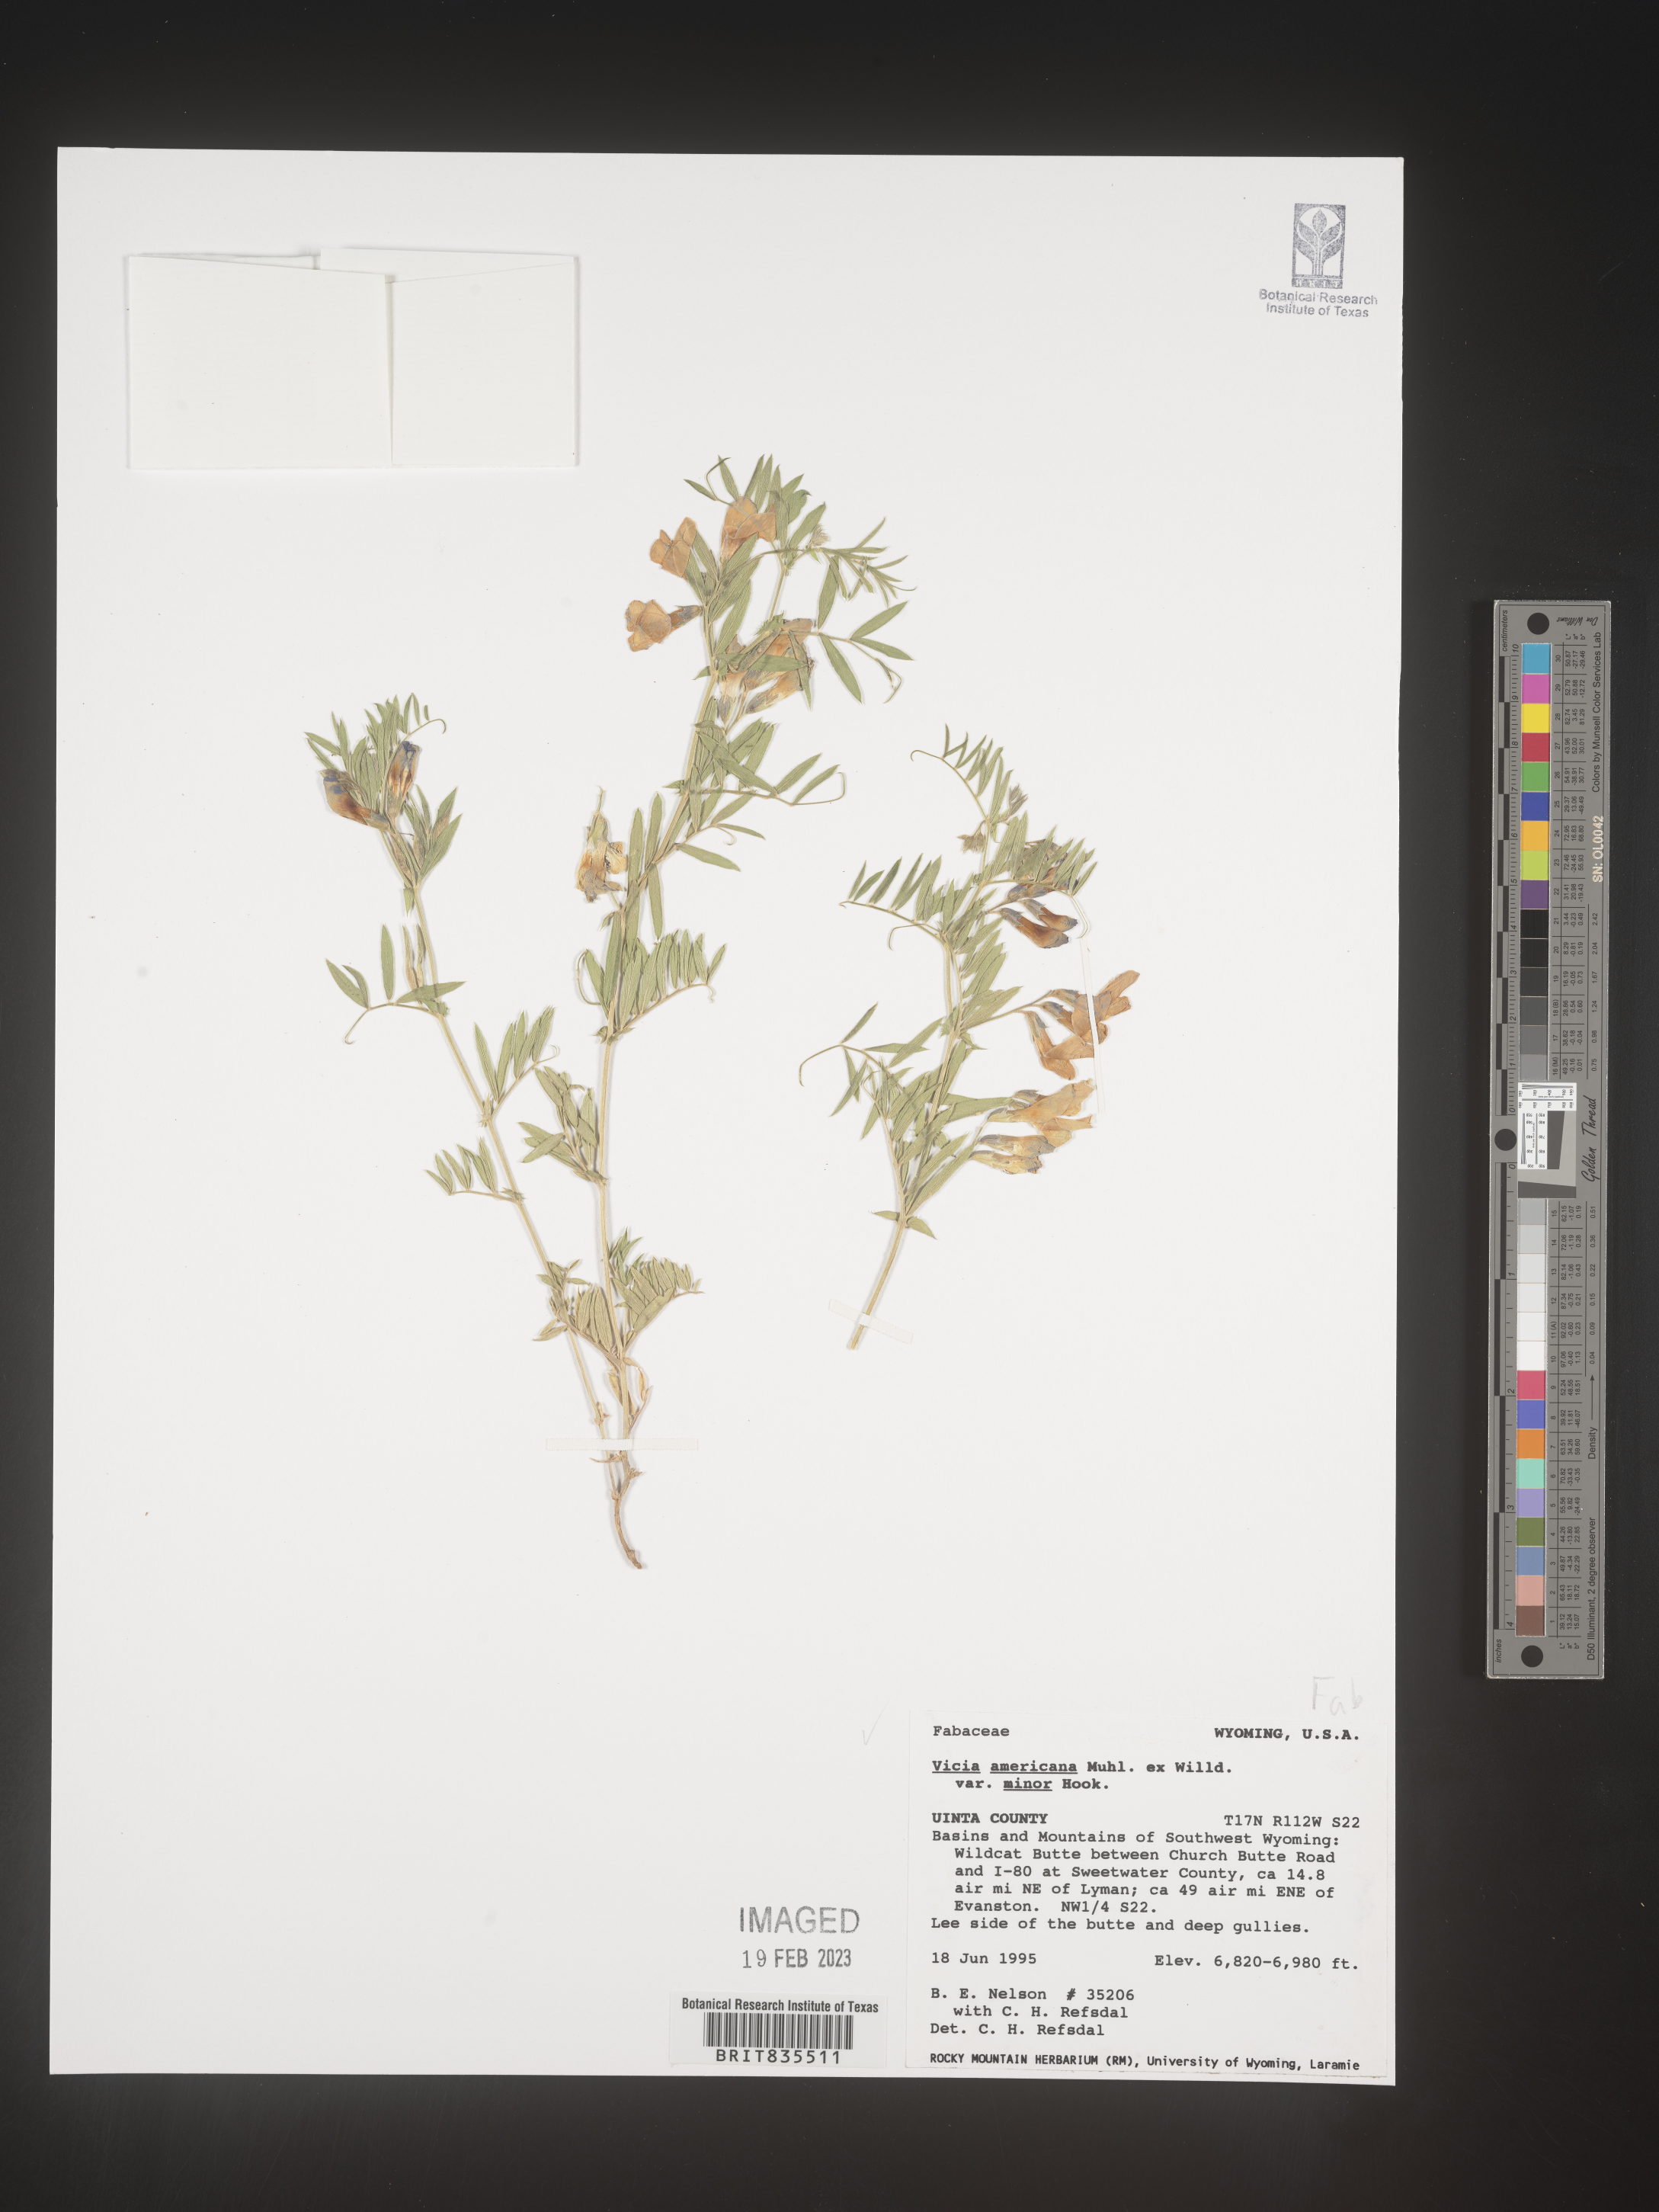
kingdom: Plantae
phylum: Tracheophyta
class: Magnoliopsida
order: Fabales
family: Fabaceae
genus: Vicia
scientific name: Vicia americana
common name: American vetch
